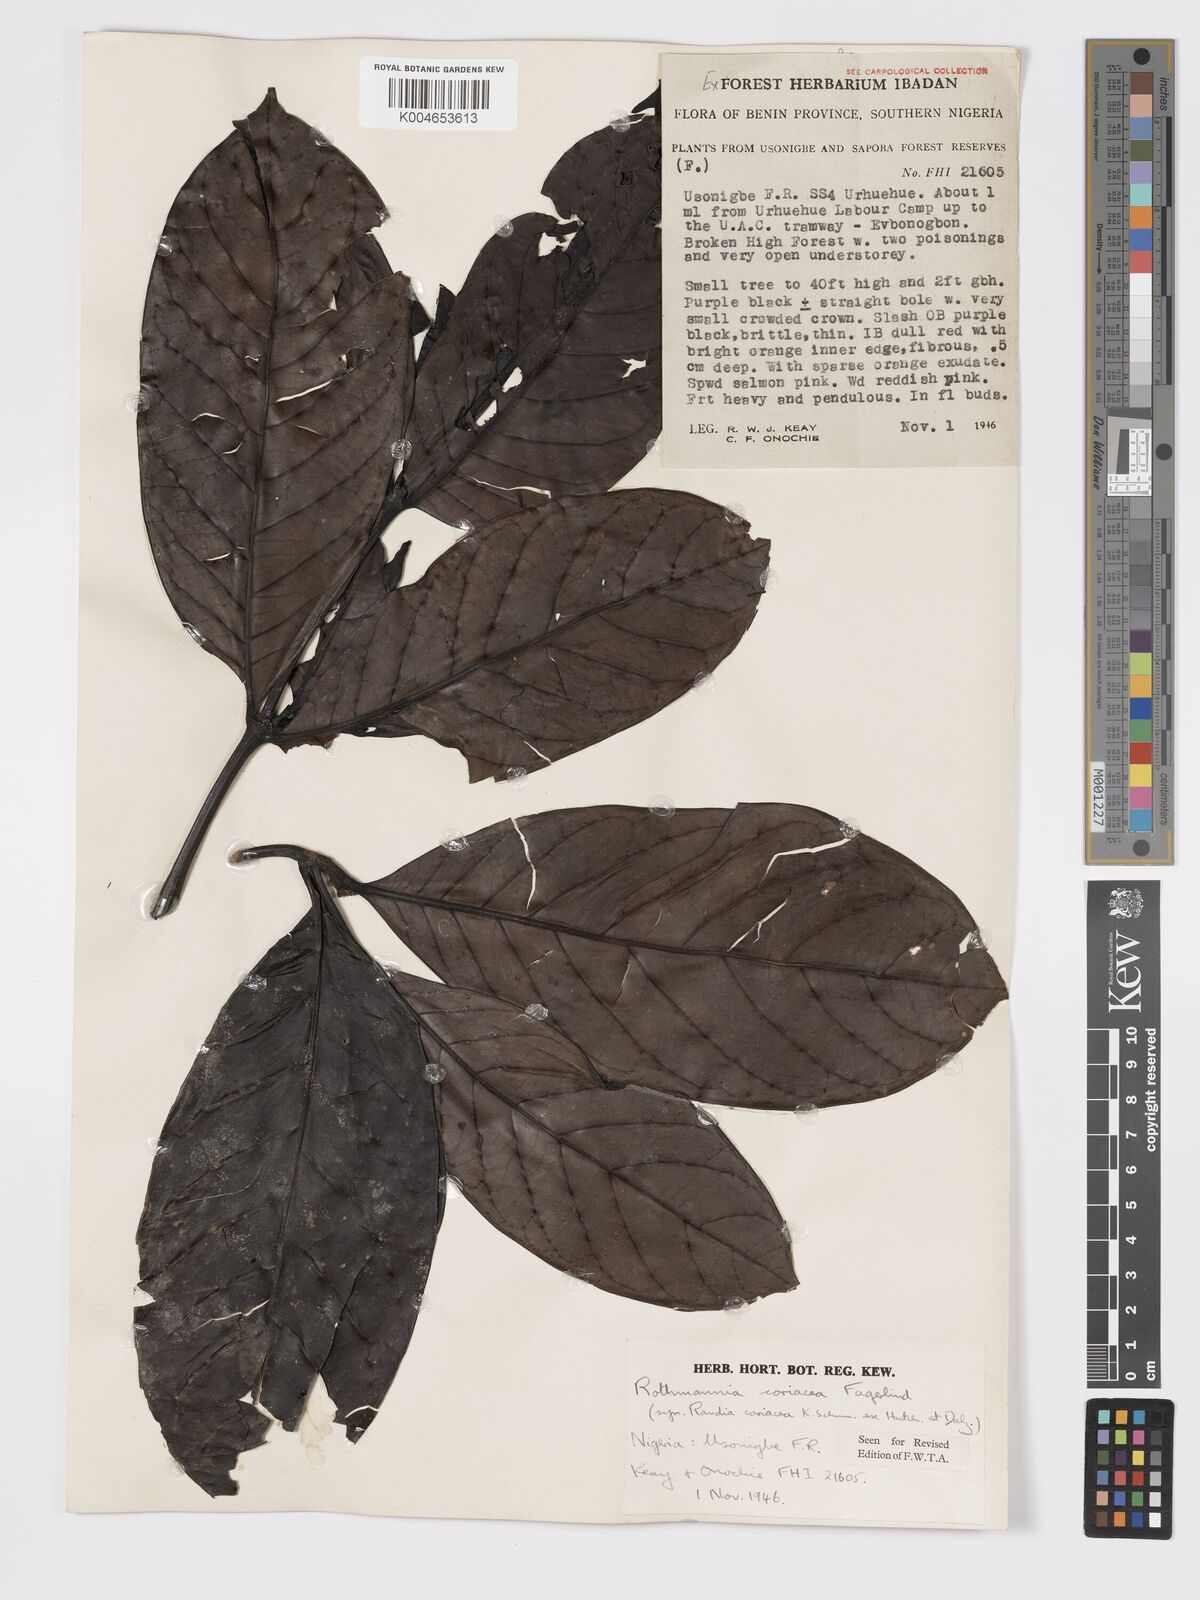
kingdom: Plantae
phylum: Tracheophyta
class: Magnoliopsida
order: Gentianales
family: Rubiaceae
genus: Rothmannia
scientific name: Rothmannia lujae
